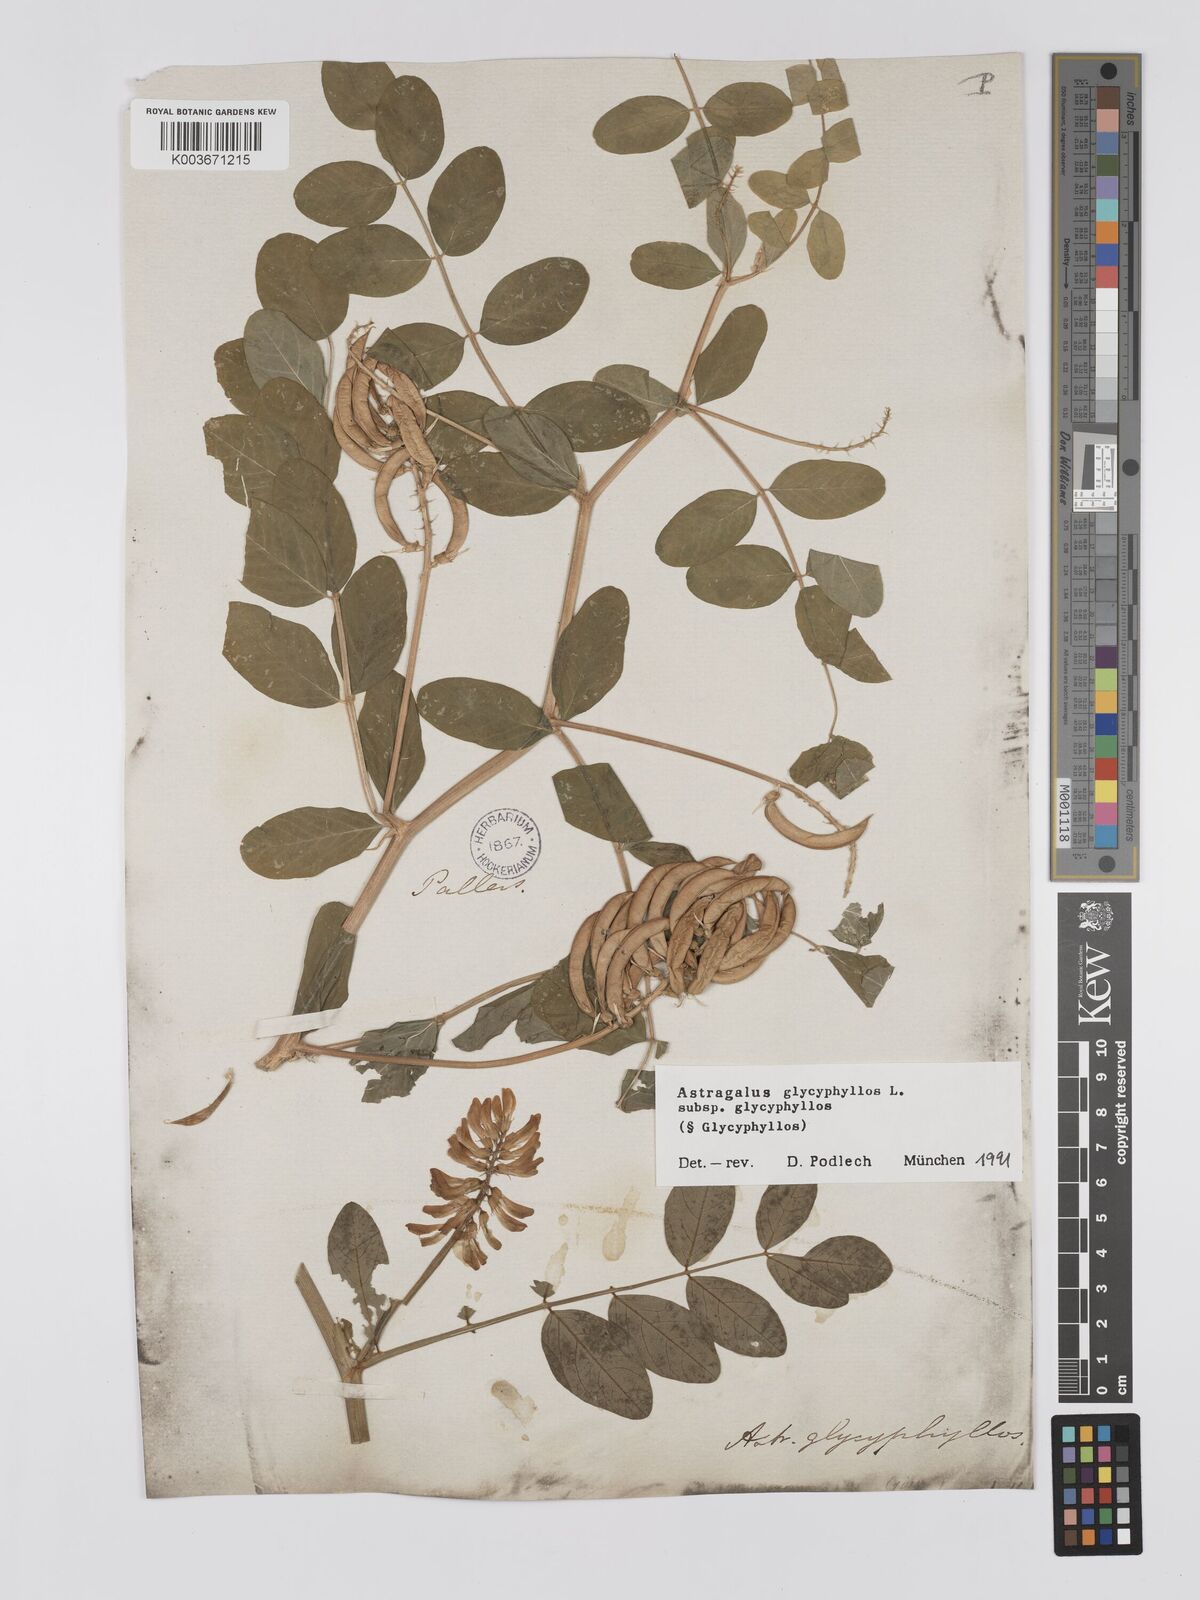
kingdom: Plantae
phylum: Tracheophyta
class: Magnoliopsida
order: Fabales
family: Fabaceae
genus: Astragalus
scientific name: Astragalus glycyphyllos
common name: Wild liquorice
